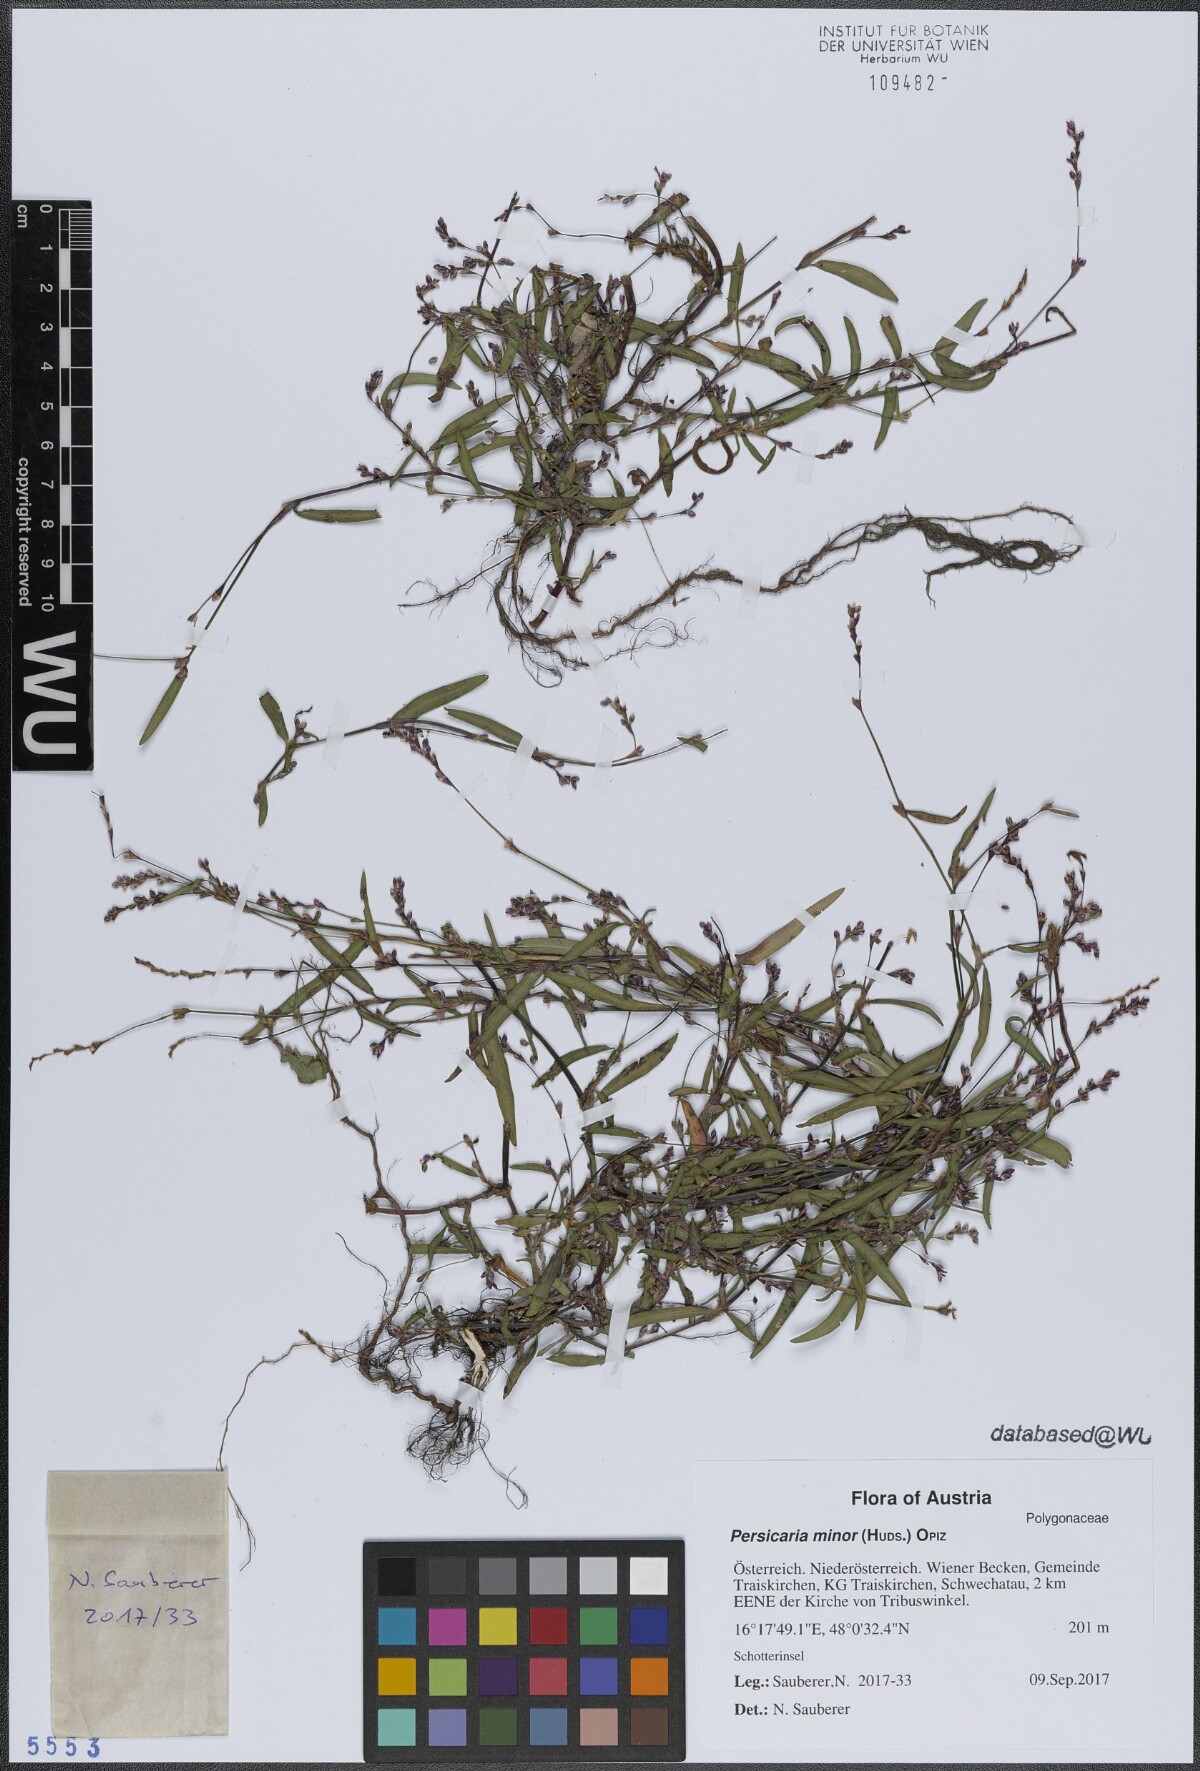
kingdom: Plantae
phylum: Tracheophyta
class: Magnoliopsida
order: Caryophyllales
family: Polygonaceae
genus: Persicaria
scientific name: Persicaria minor
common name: Small water-pepper
